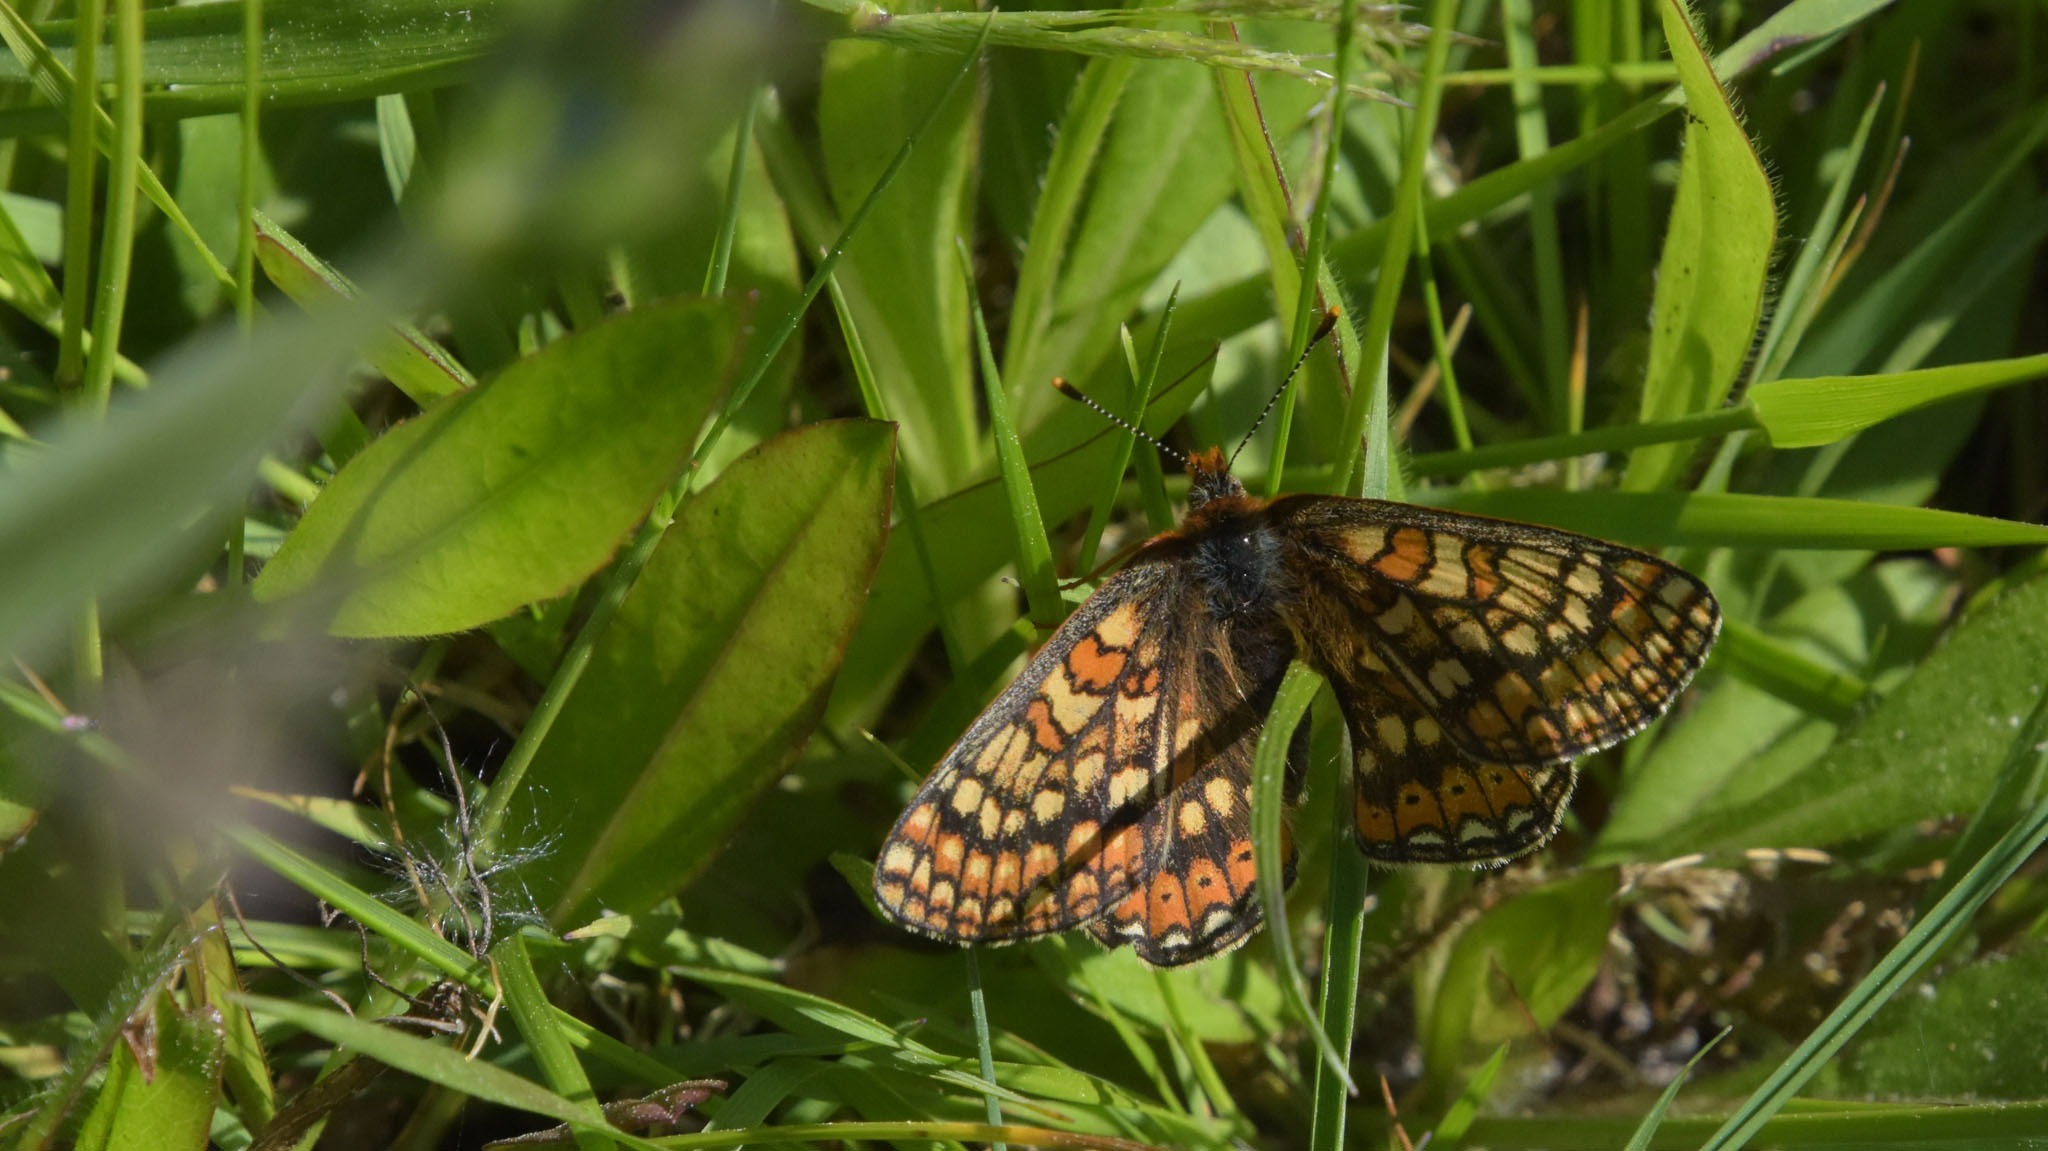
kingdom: Animalia
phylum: Arthropoda
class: Insecta
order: Lepidoptera
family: Nymphalidae
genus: Euphydryas
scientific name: Euphydryas aurinia
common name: Hedepletvinge
